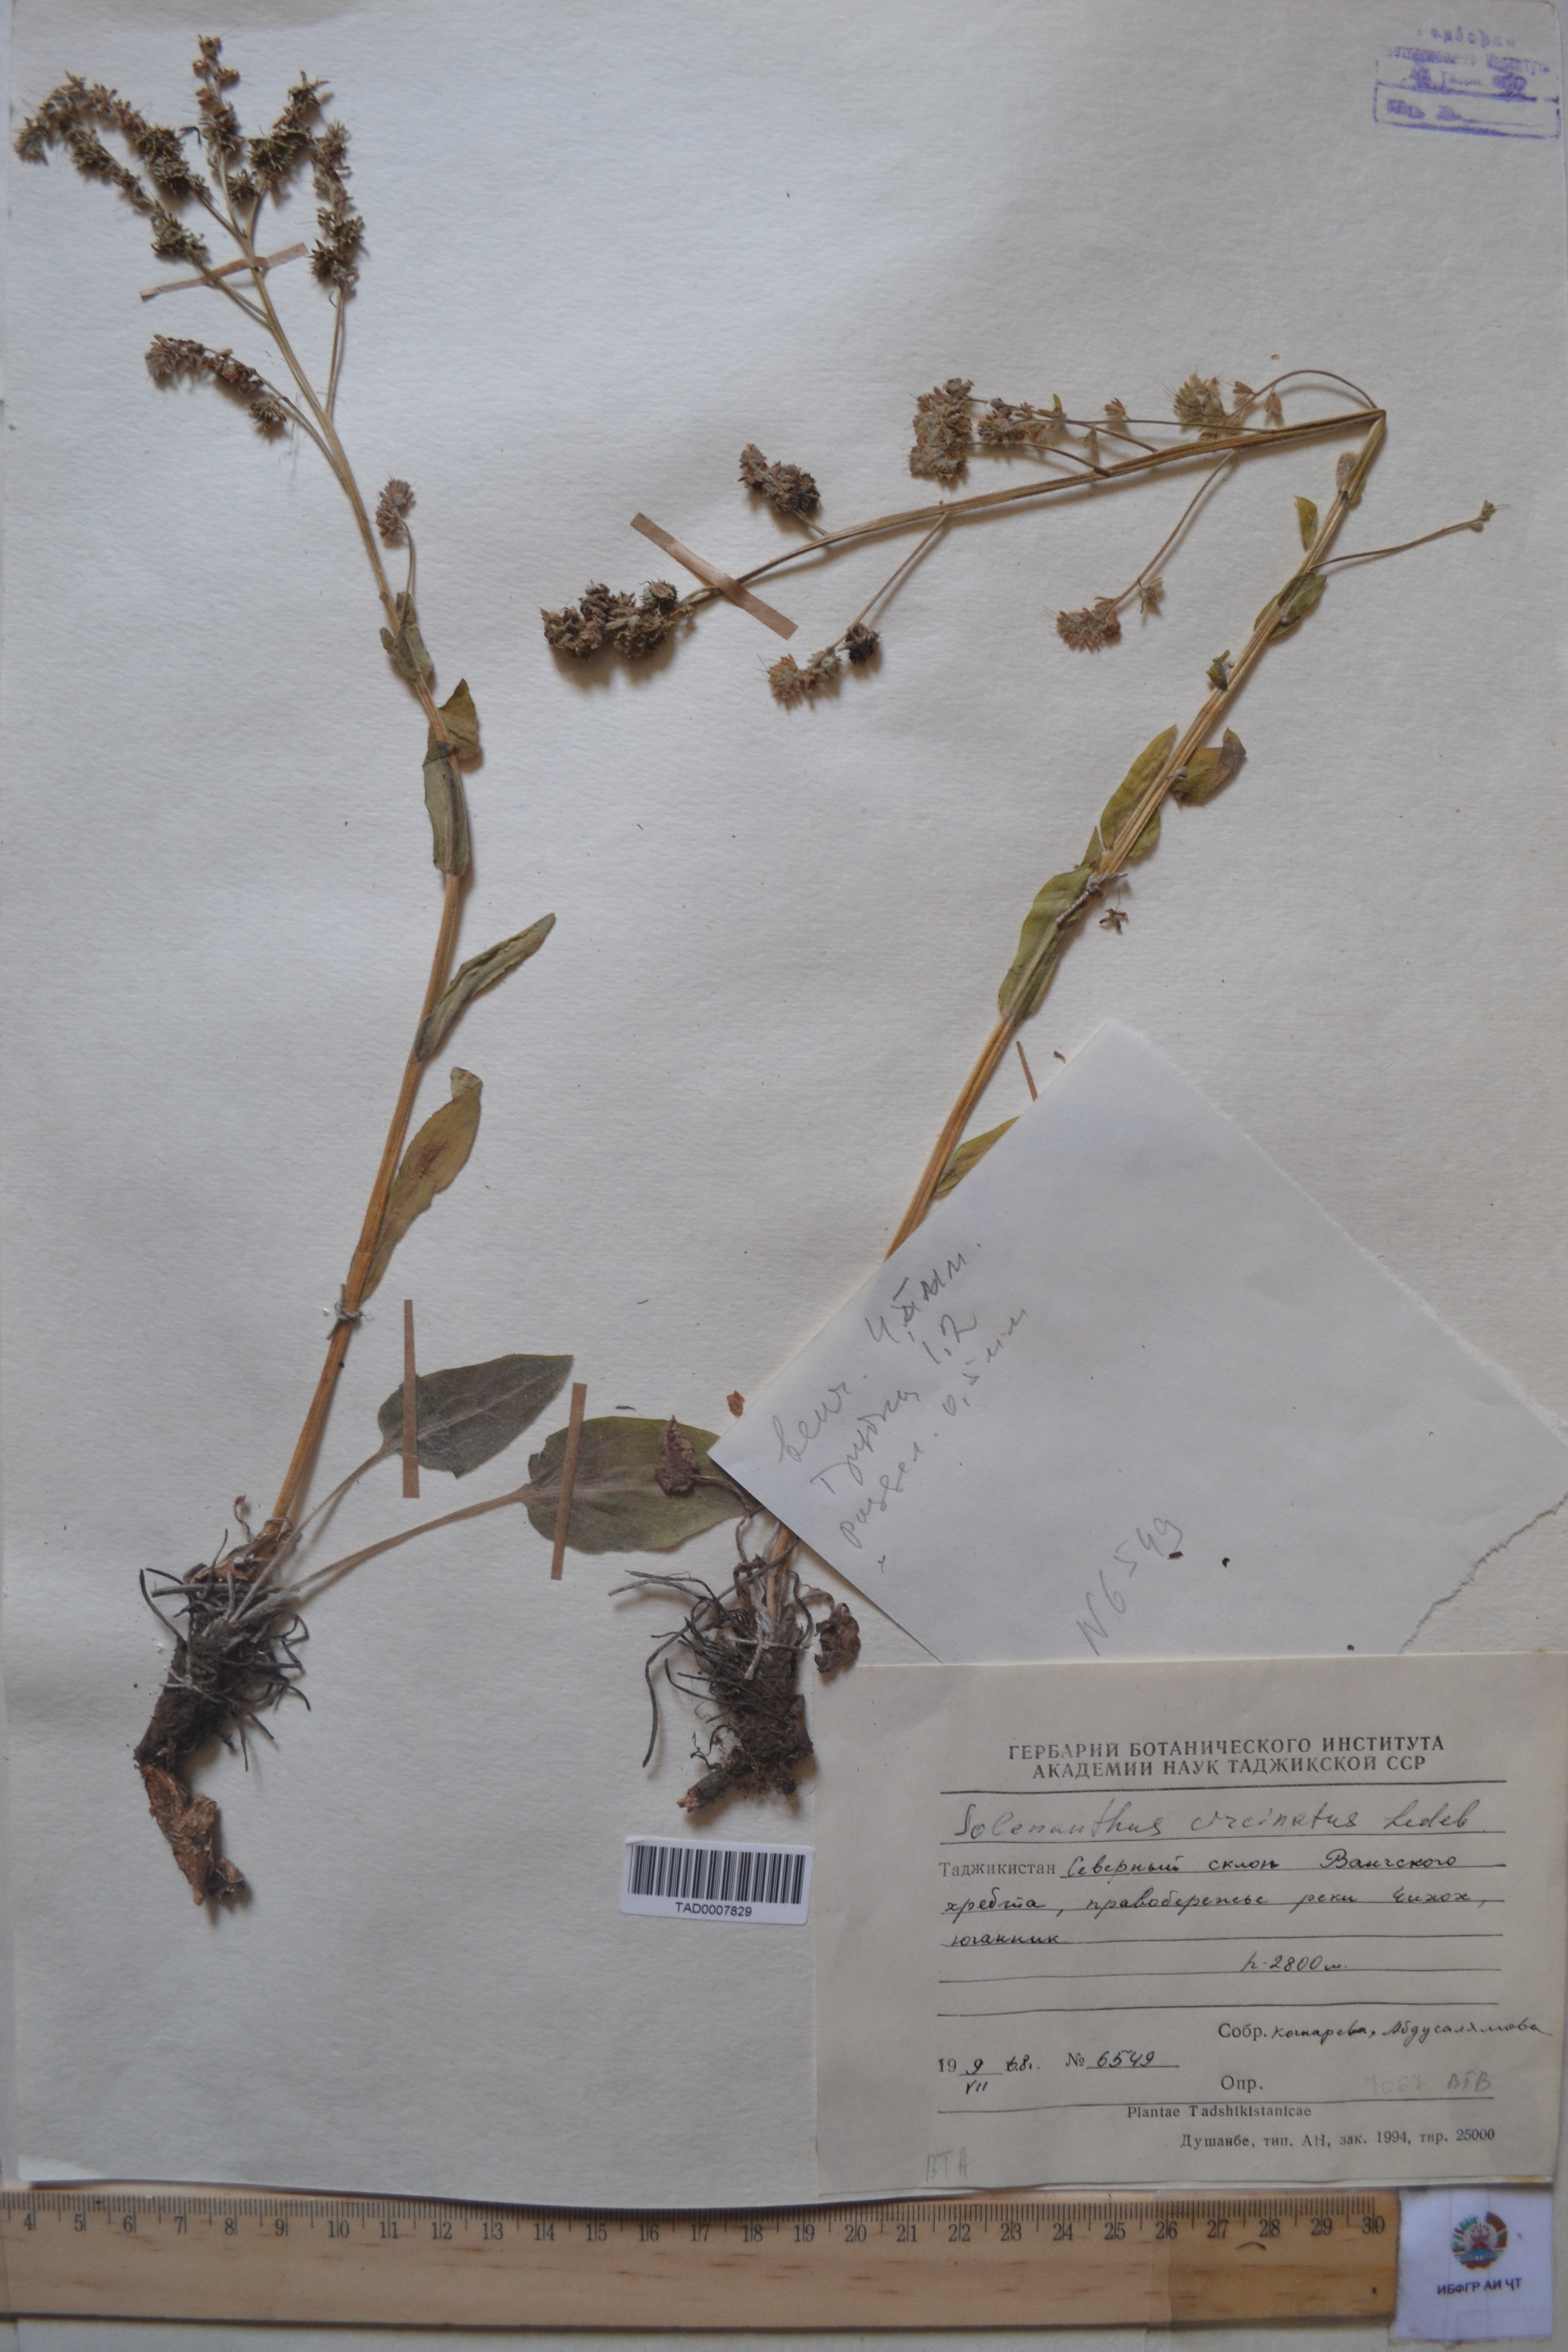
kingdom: Plantae
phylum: Tracheophyta
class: Magnoliopsida
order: Boraginales
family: Boraginaceae
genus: Solenanthus
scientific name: Solenanthus circinnatus
